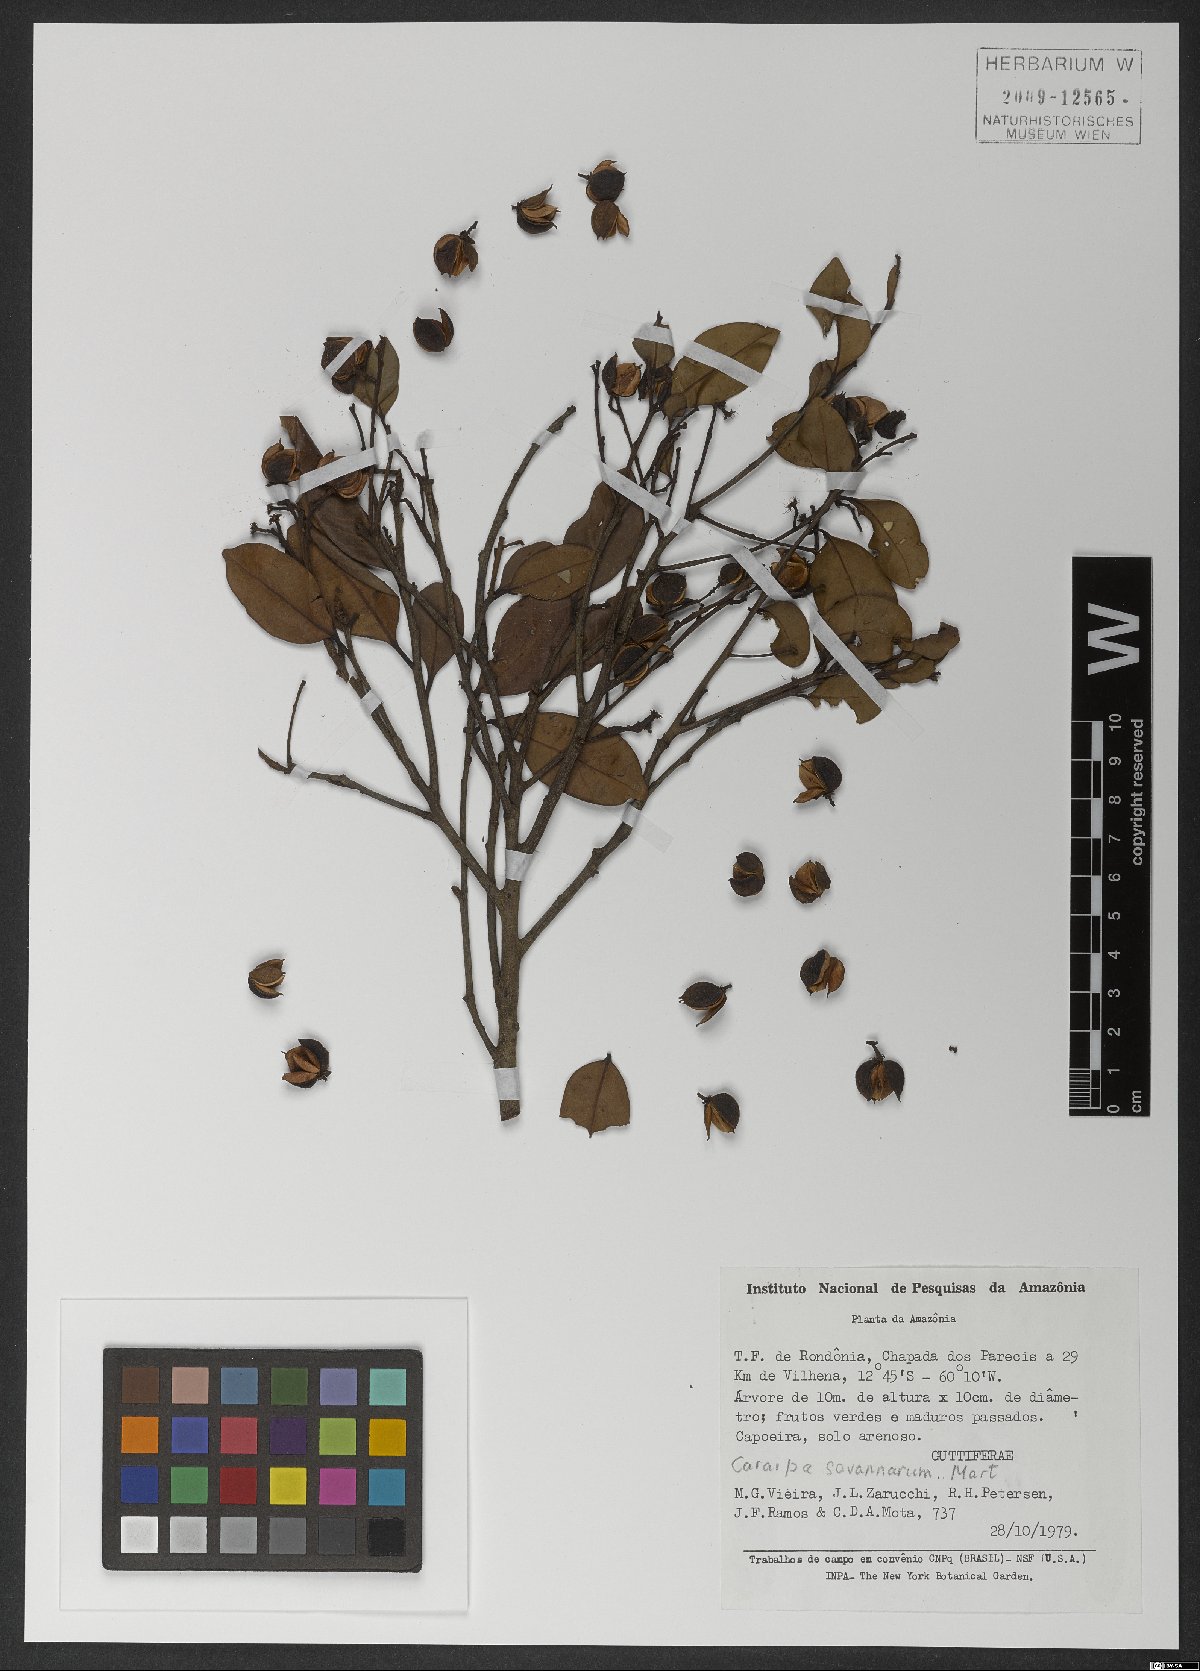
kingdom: Plantae
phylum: Tracheophyta
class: Magnoliopsida
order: Malpighiales
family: Calophyllaceae
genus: Caraipa
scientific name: Caraipa savannarum
